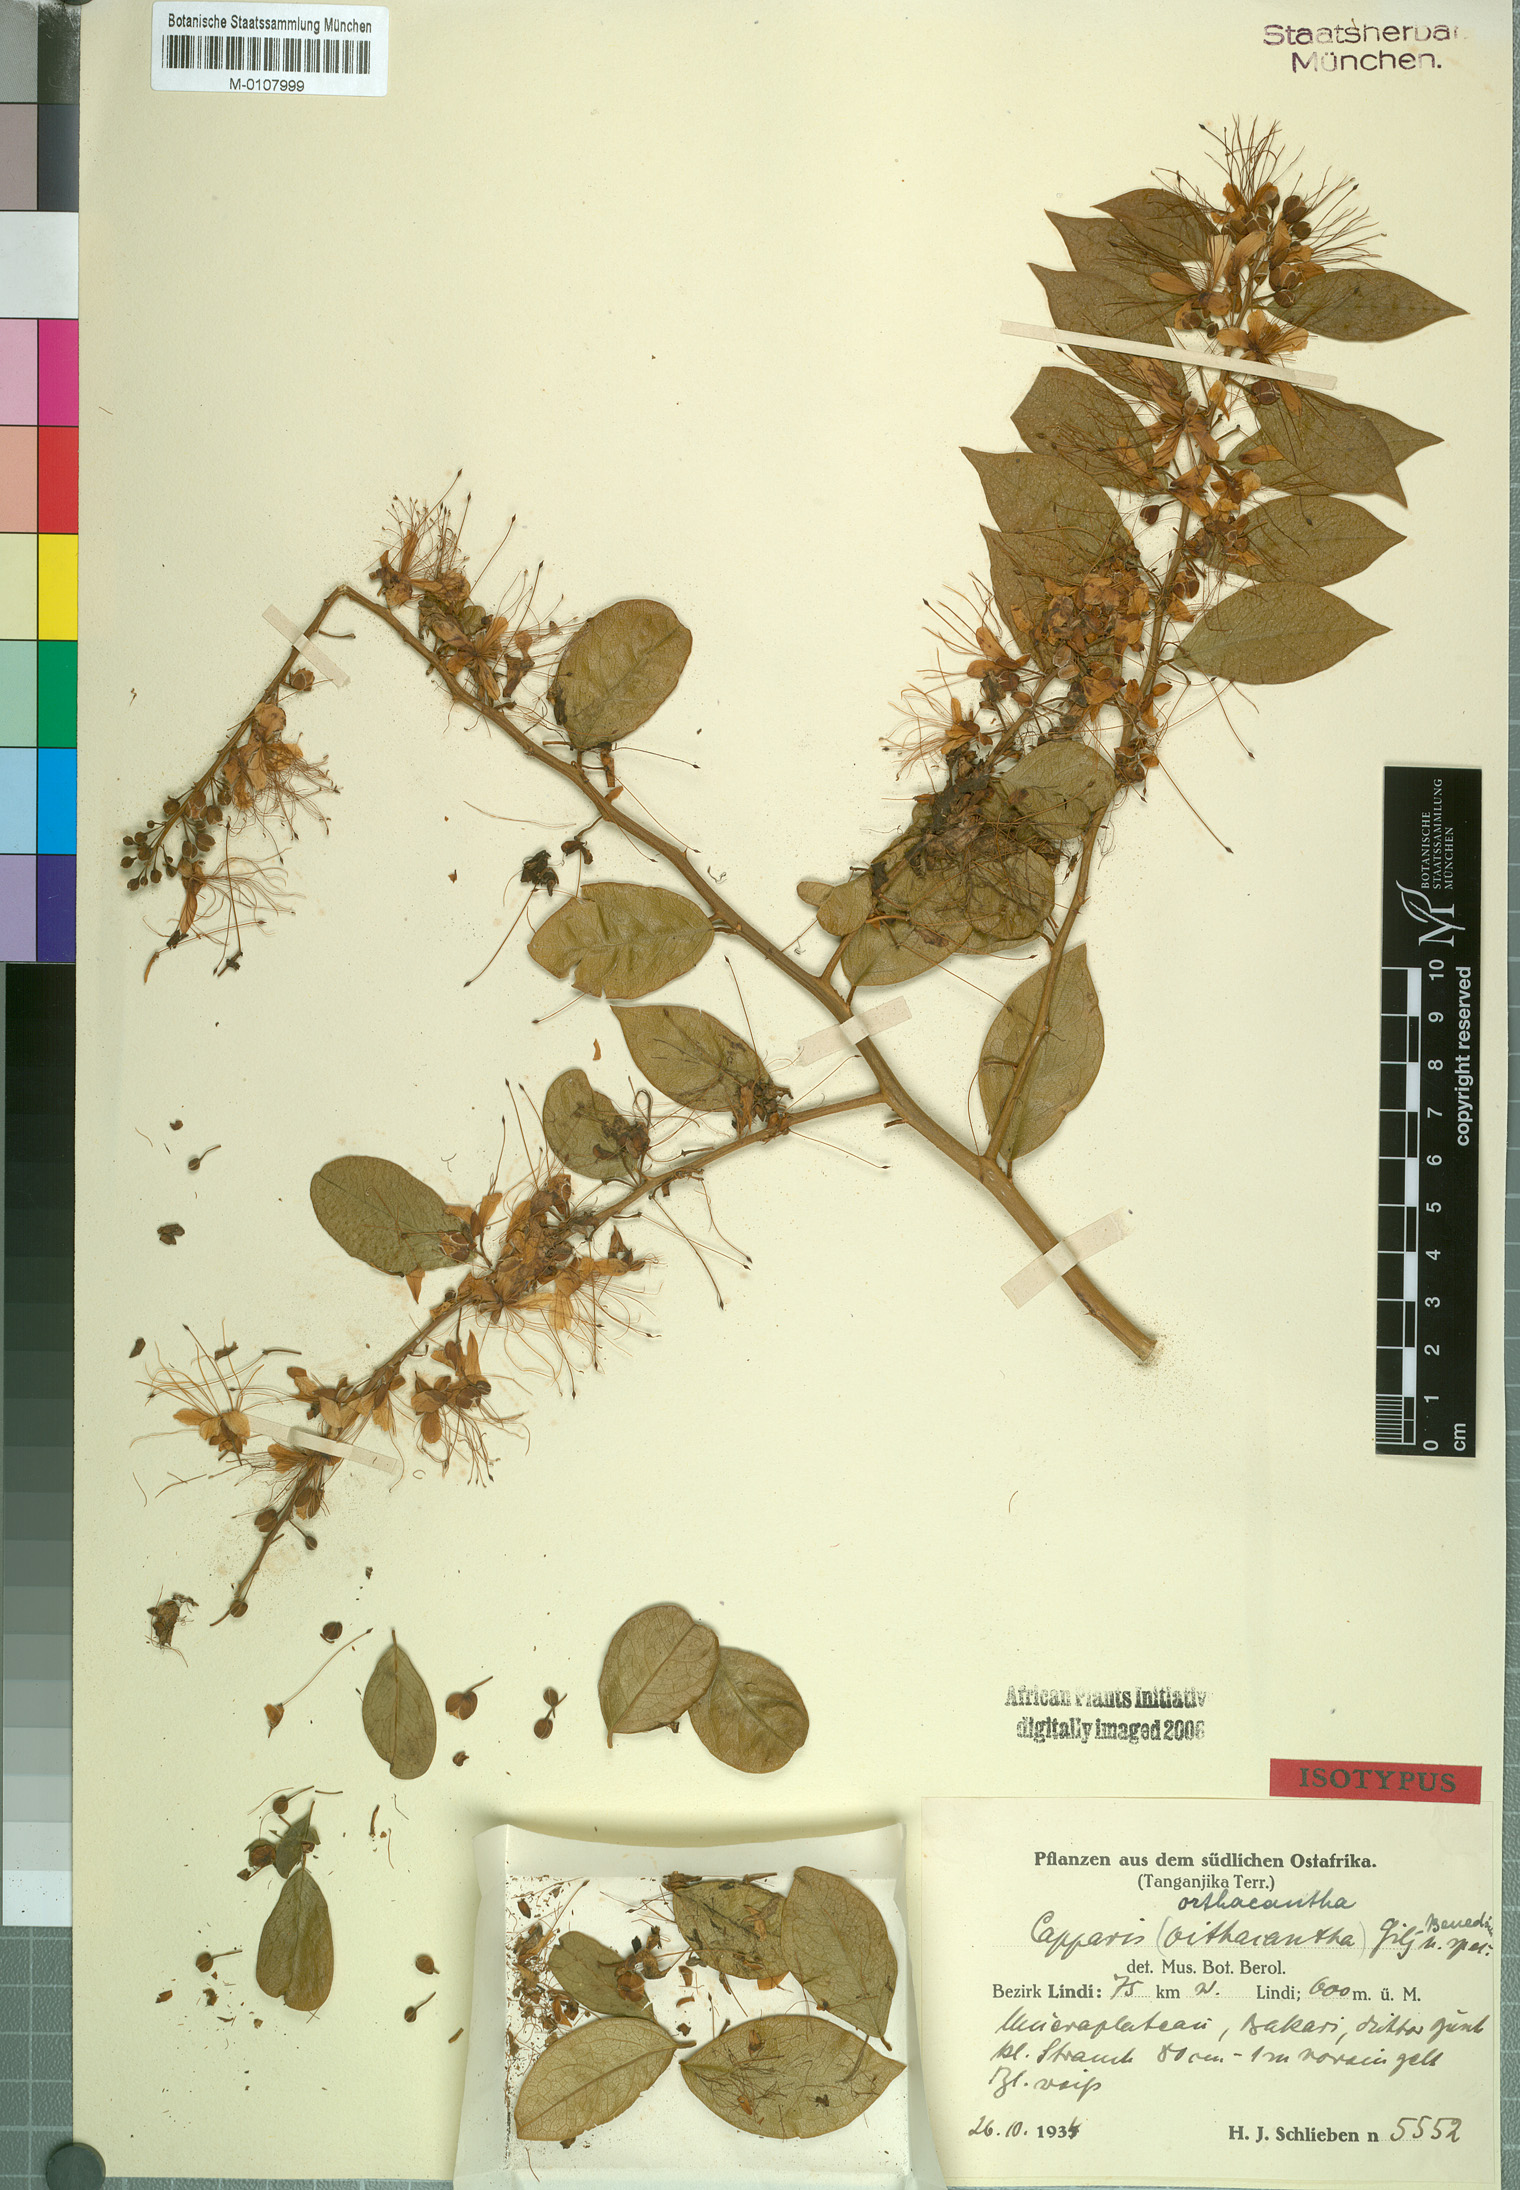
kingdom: Plantae
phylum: Tracheophyta
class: Magnoliopsida
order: Brassicales
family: Capparaceae
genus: Capparis
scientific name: Capparis viminea
